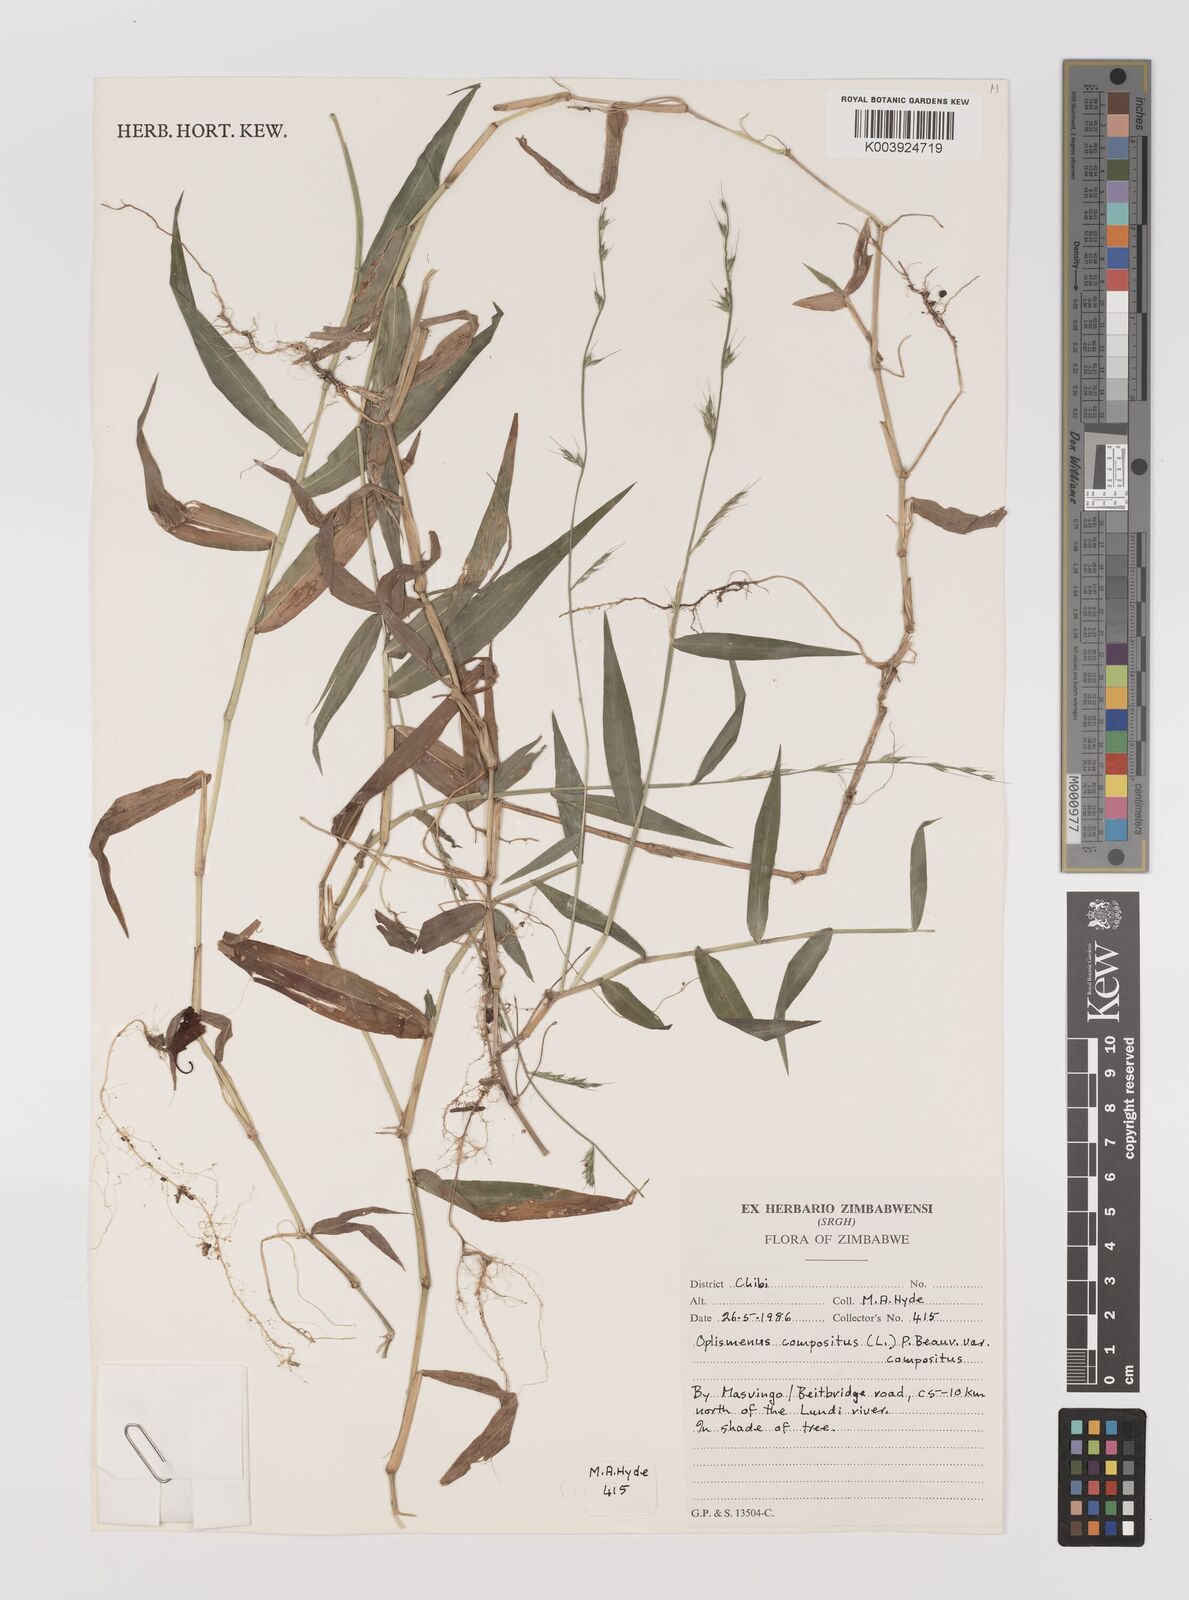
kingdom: Plantae
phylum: Tracheophyta
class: Liliopsida
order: Poales
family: Poaceae
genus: Oplismenus
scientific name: Oplismenus compositus
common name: Running mountain grass
